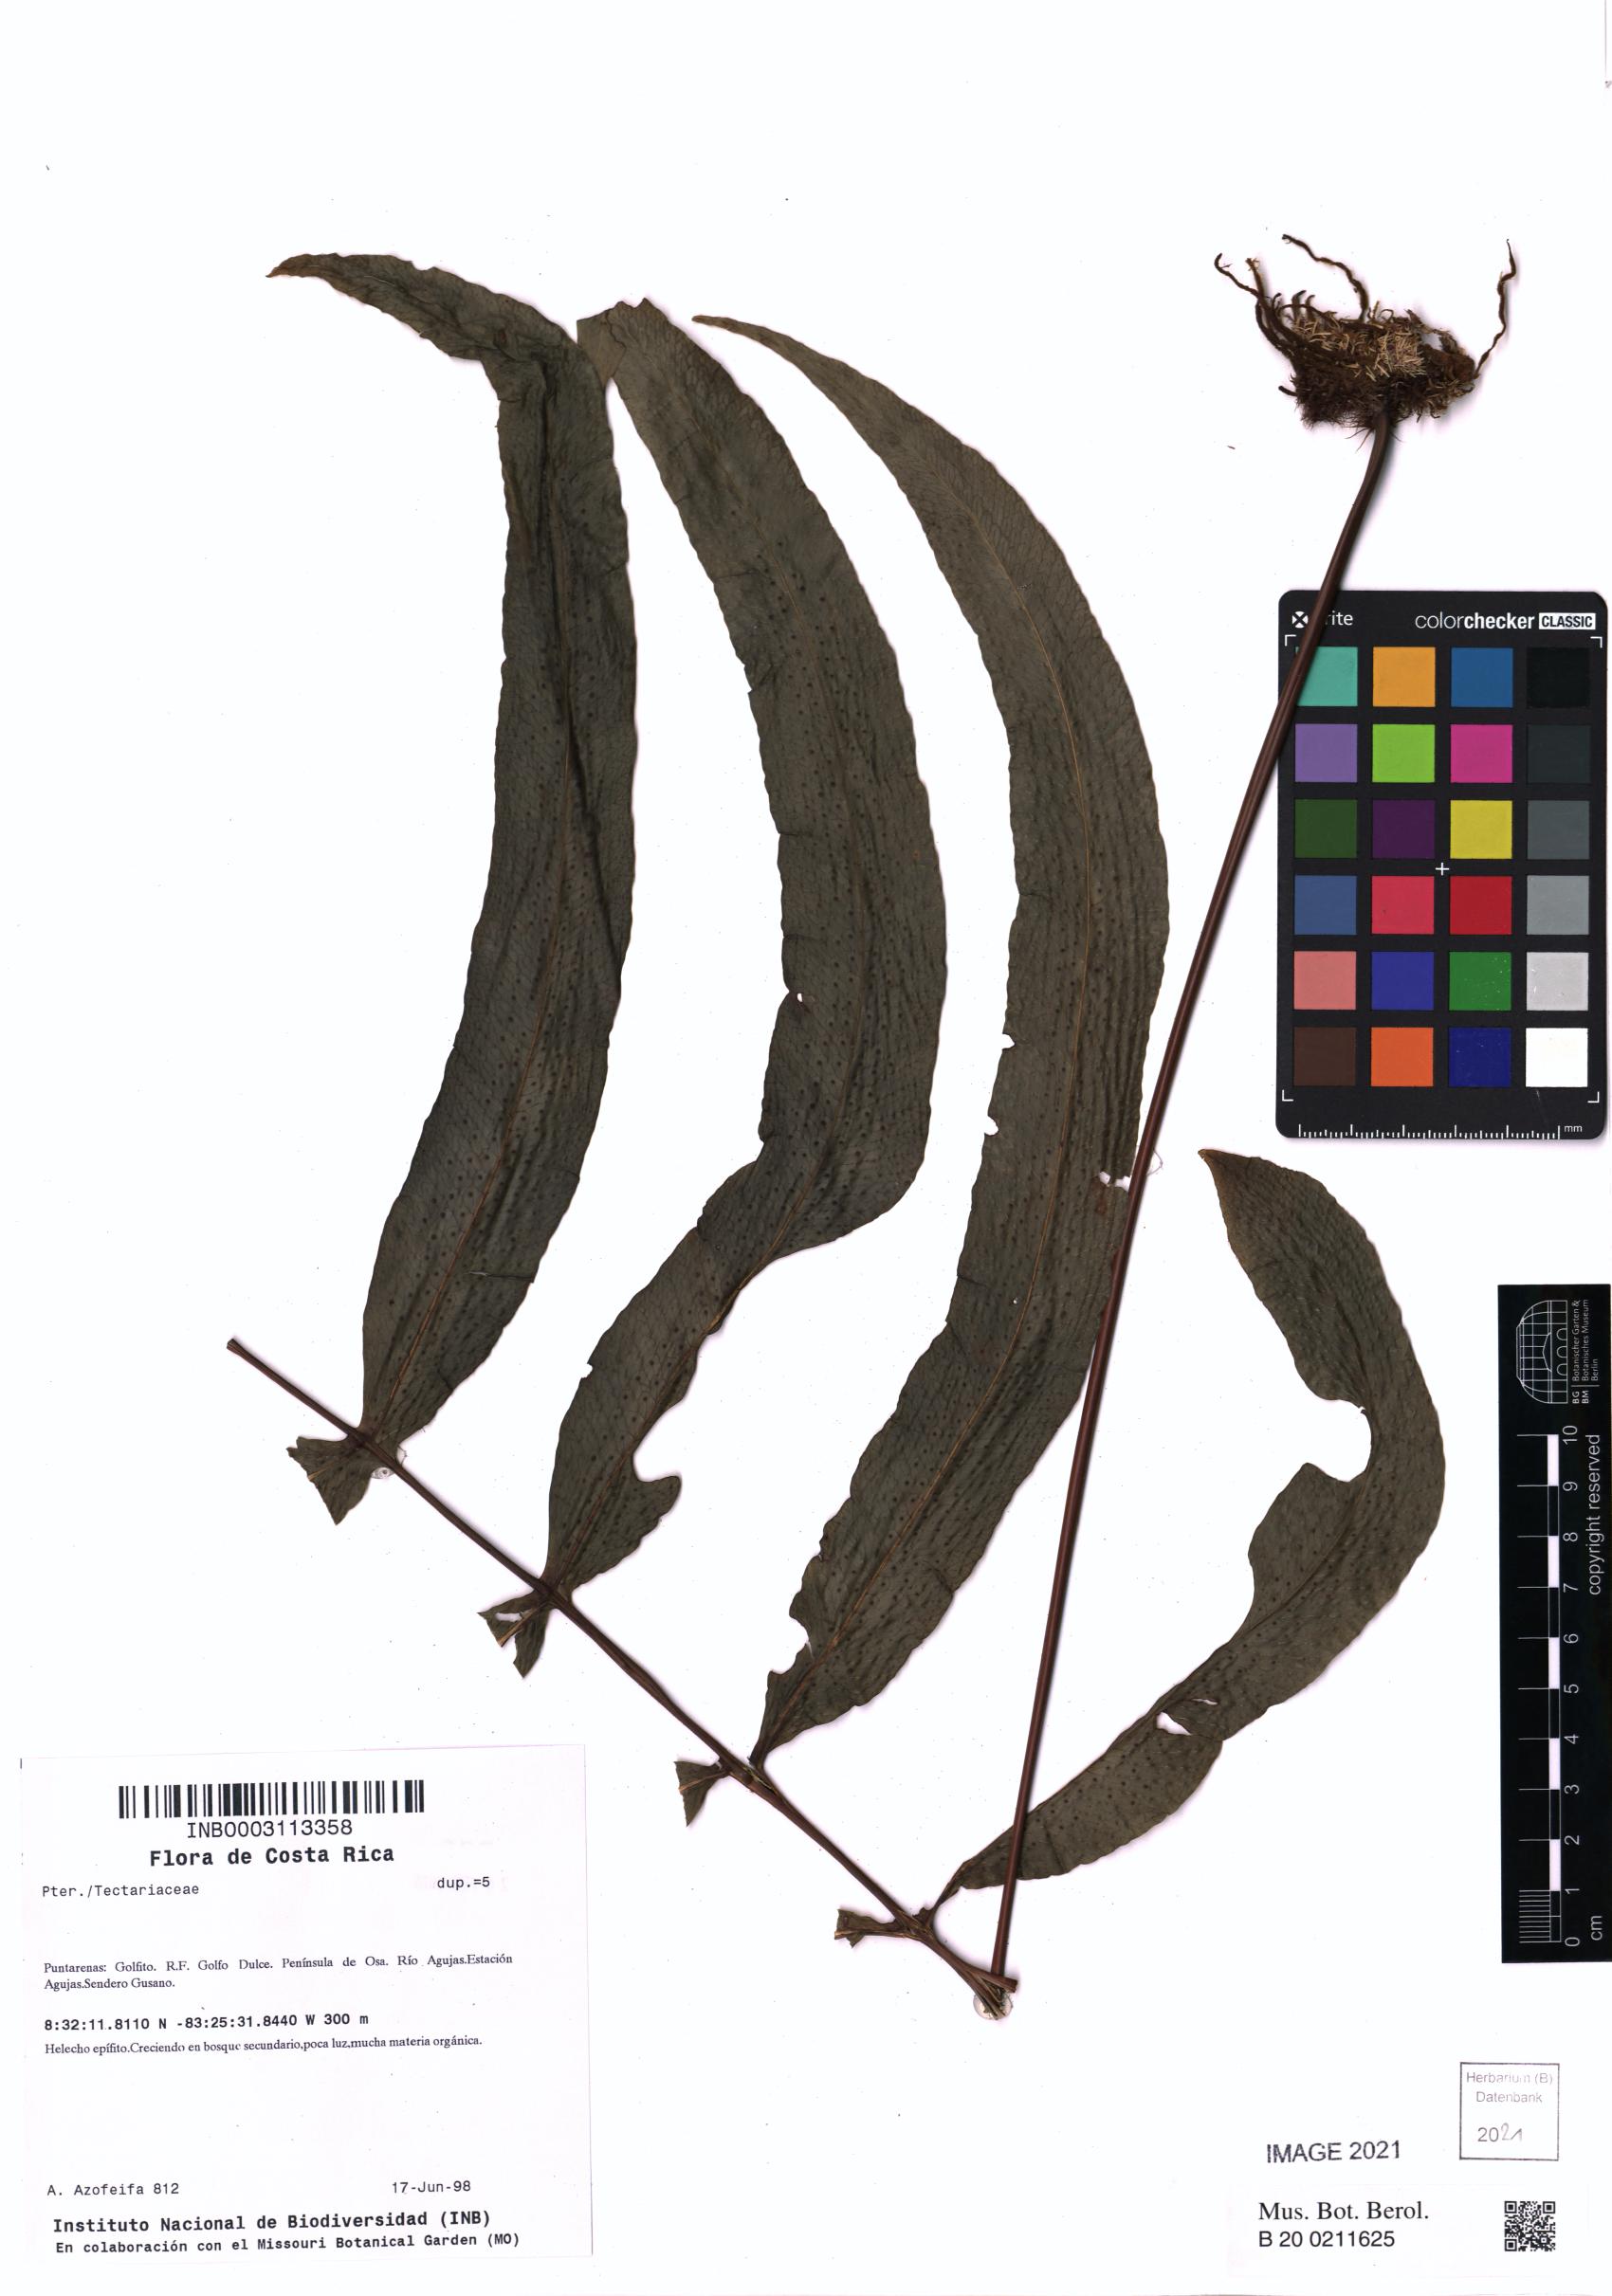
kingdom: Plantae
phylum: Tracheophyta
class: Polypodiopsida
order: Polypodiales
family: Tectariaceae
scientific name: Tectariaceae
